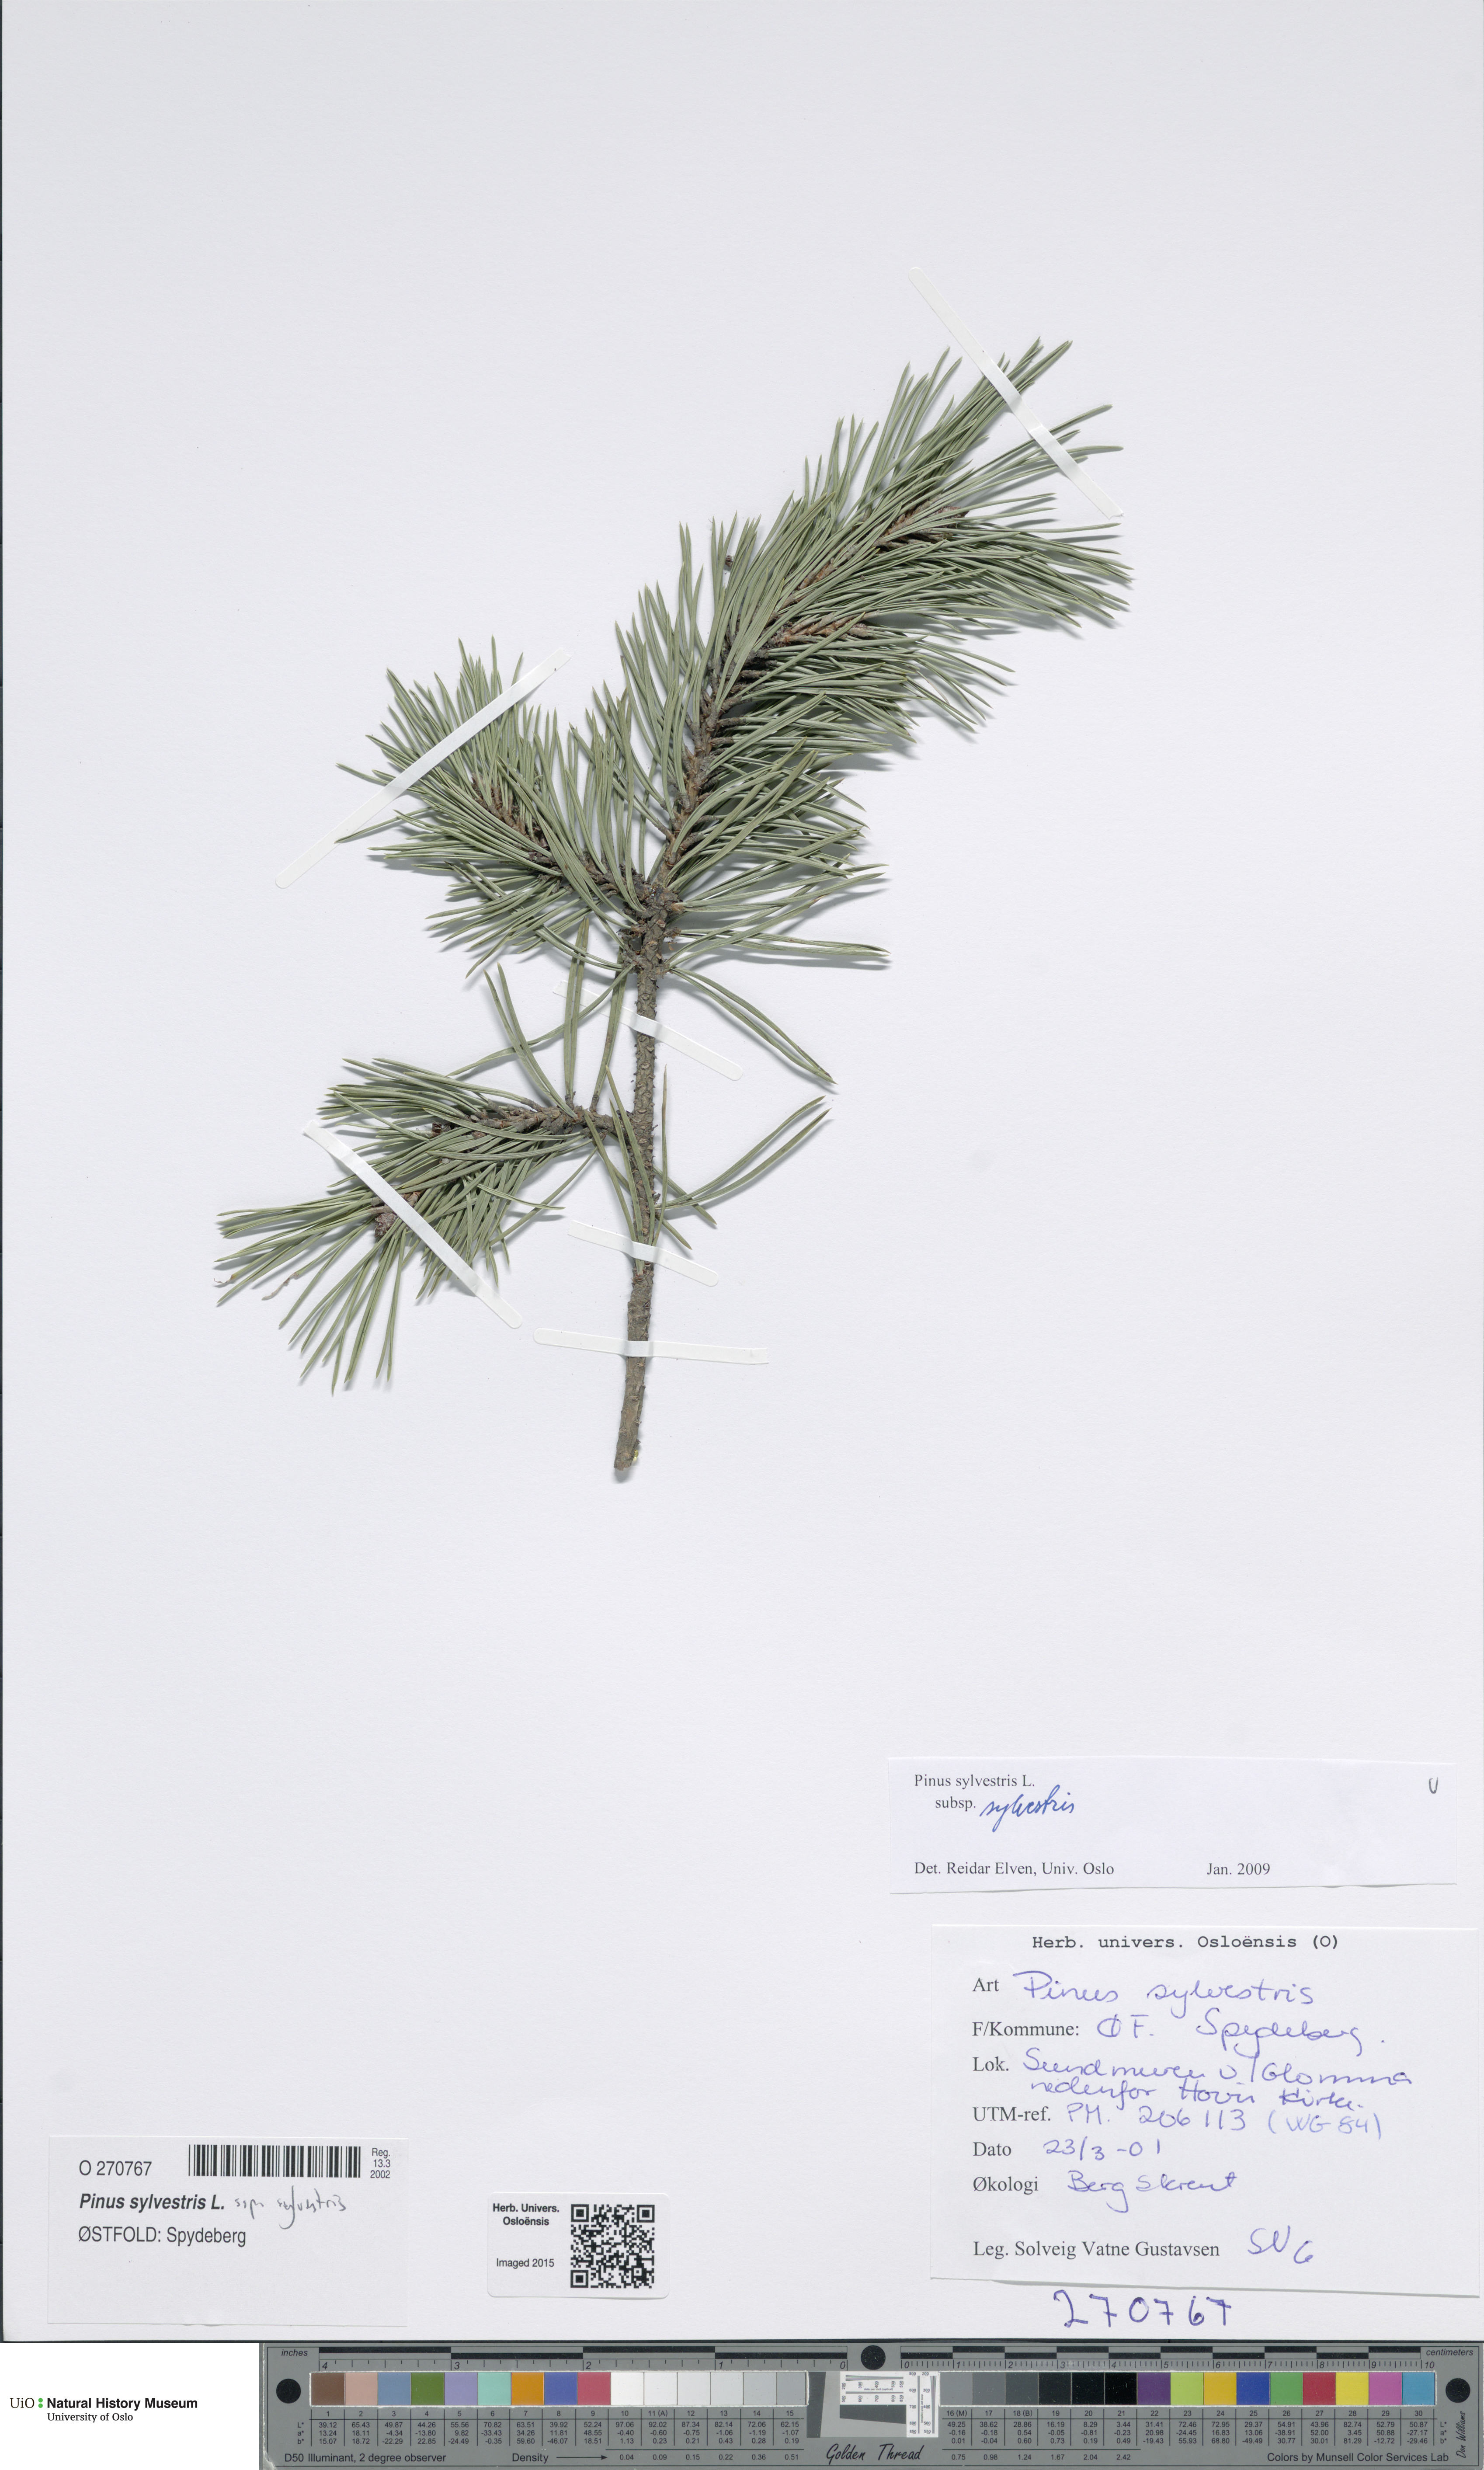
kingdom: Plantae
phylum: Tracheophyta
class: Pinopsida
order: Pinales
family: Pinaceae
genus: Pinus
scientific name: Pinus sylvestris
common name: Scots pine
